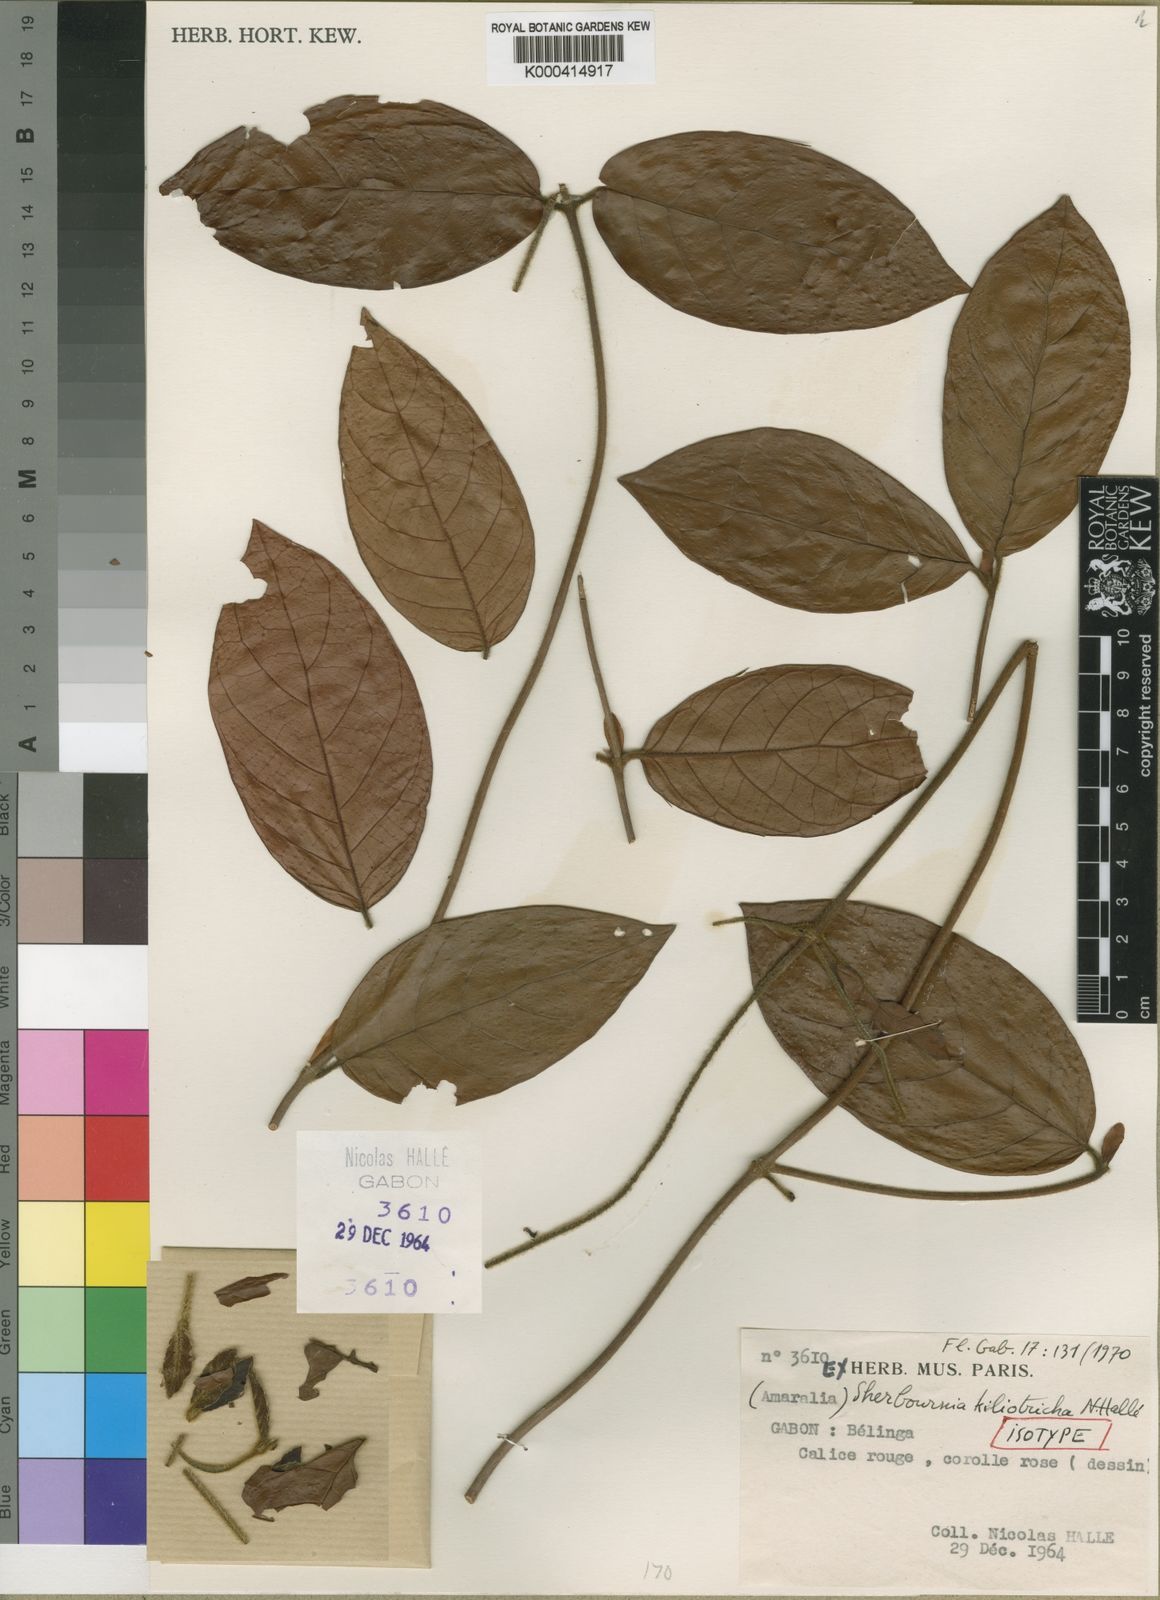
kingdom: Plantae
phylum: Tracheophyta
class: Magnoliopsida
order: Gentianales
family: Rubiaceae
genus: Sherbournia
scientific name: Sherbournia
